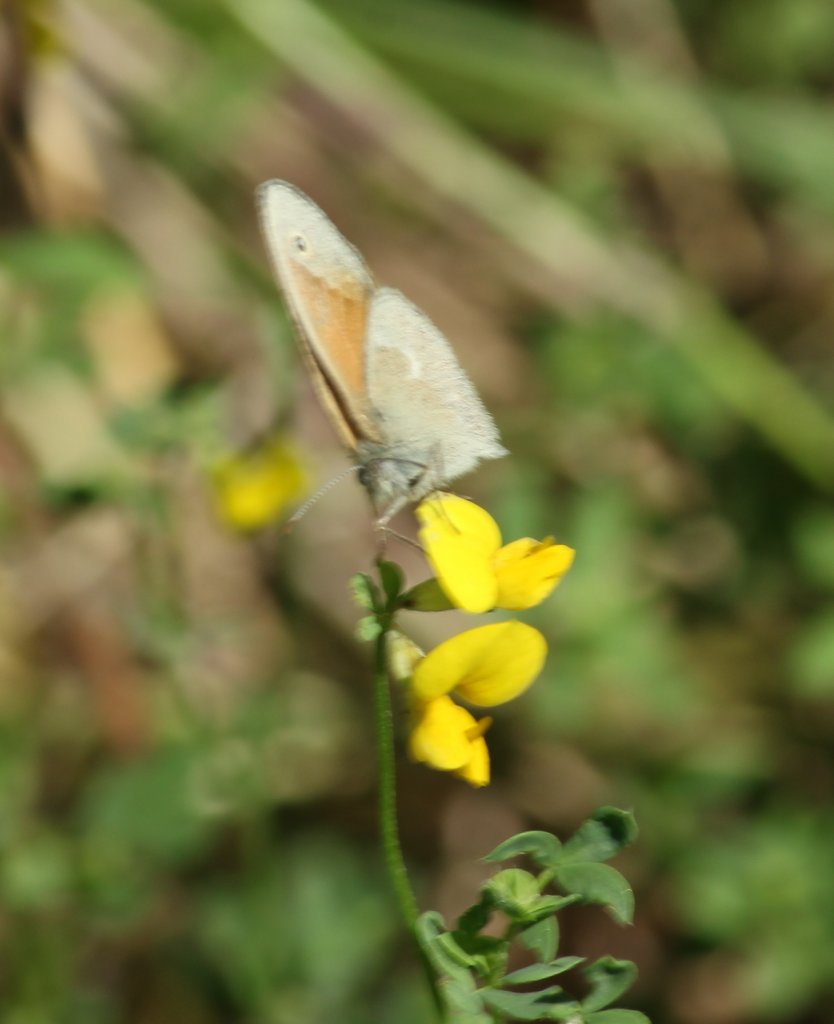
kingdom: Animalia
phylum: Arthropoda
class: Insecta
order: Lepidoptera
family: Nymphalidae
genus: Coenonympha
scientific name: Coenonympha tullia
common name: Large Heath
